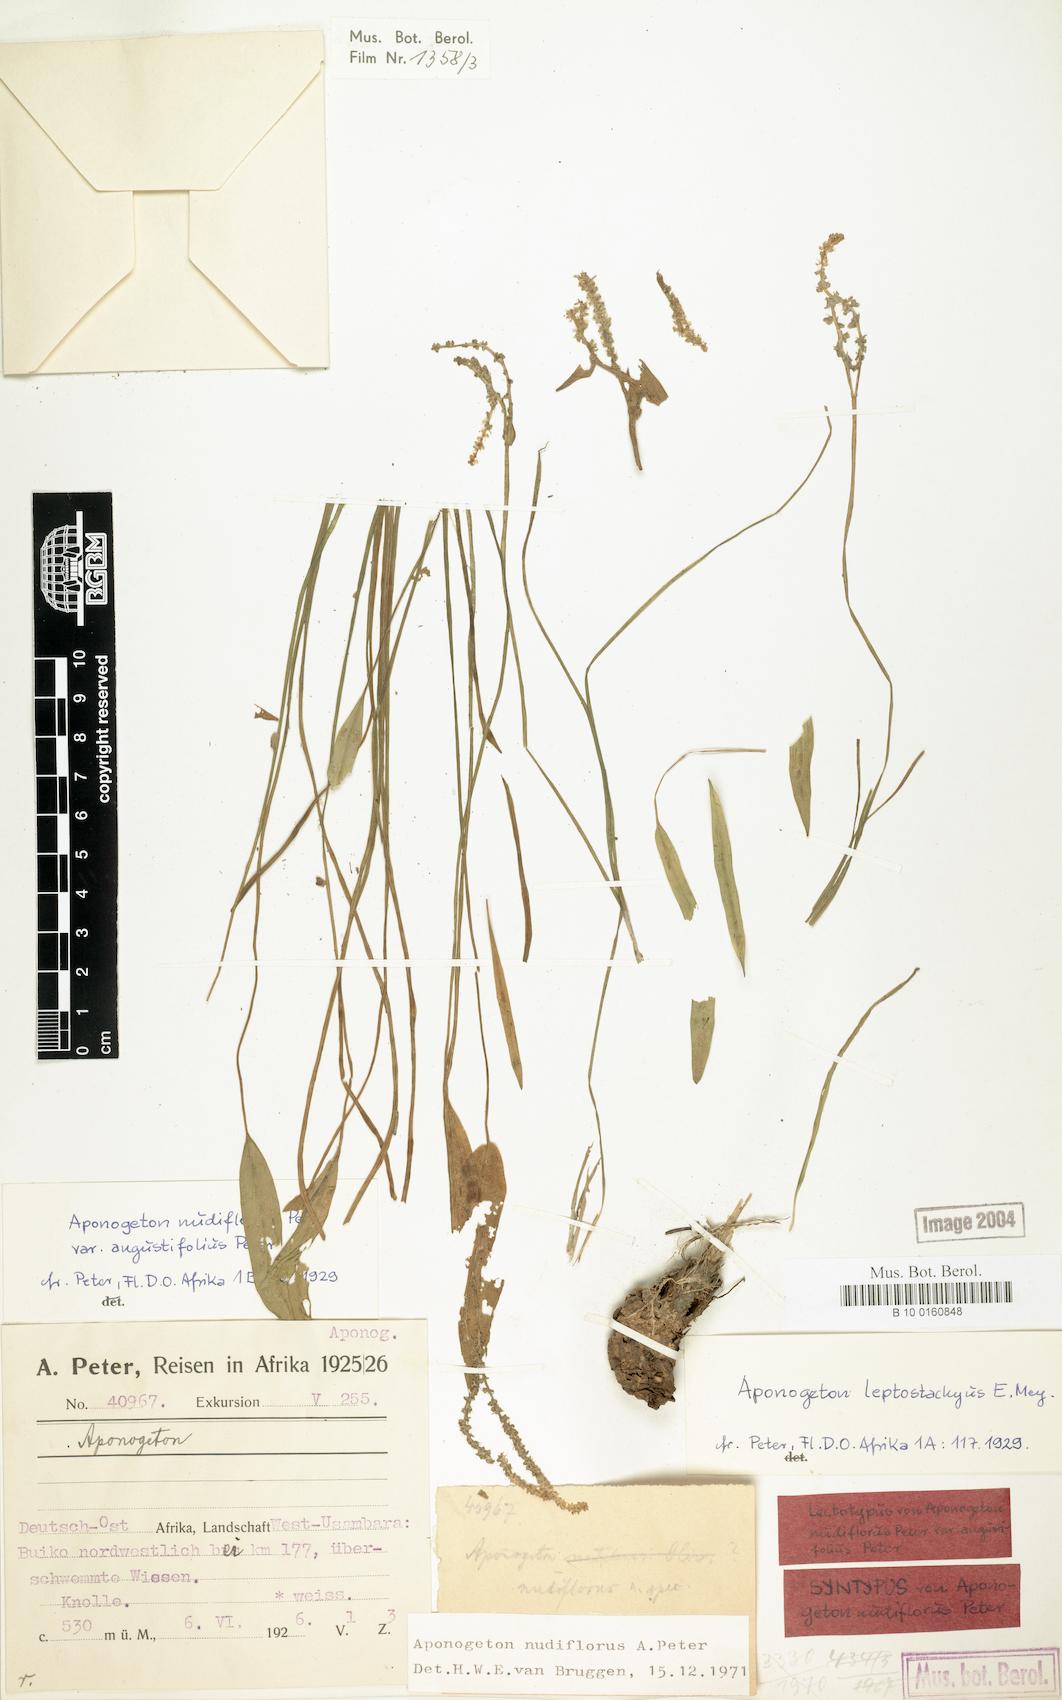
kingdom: Plantae
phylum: Tracheophyta
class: Liliopsida
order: Alismatales
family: Aponogetonaceae
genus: Aponogeton
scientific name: Aponogeton nudiflorus
